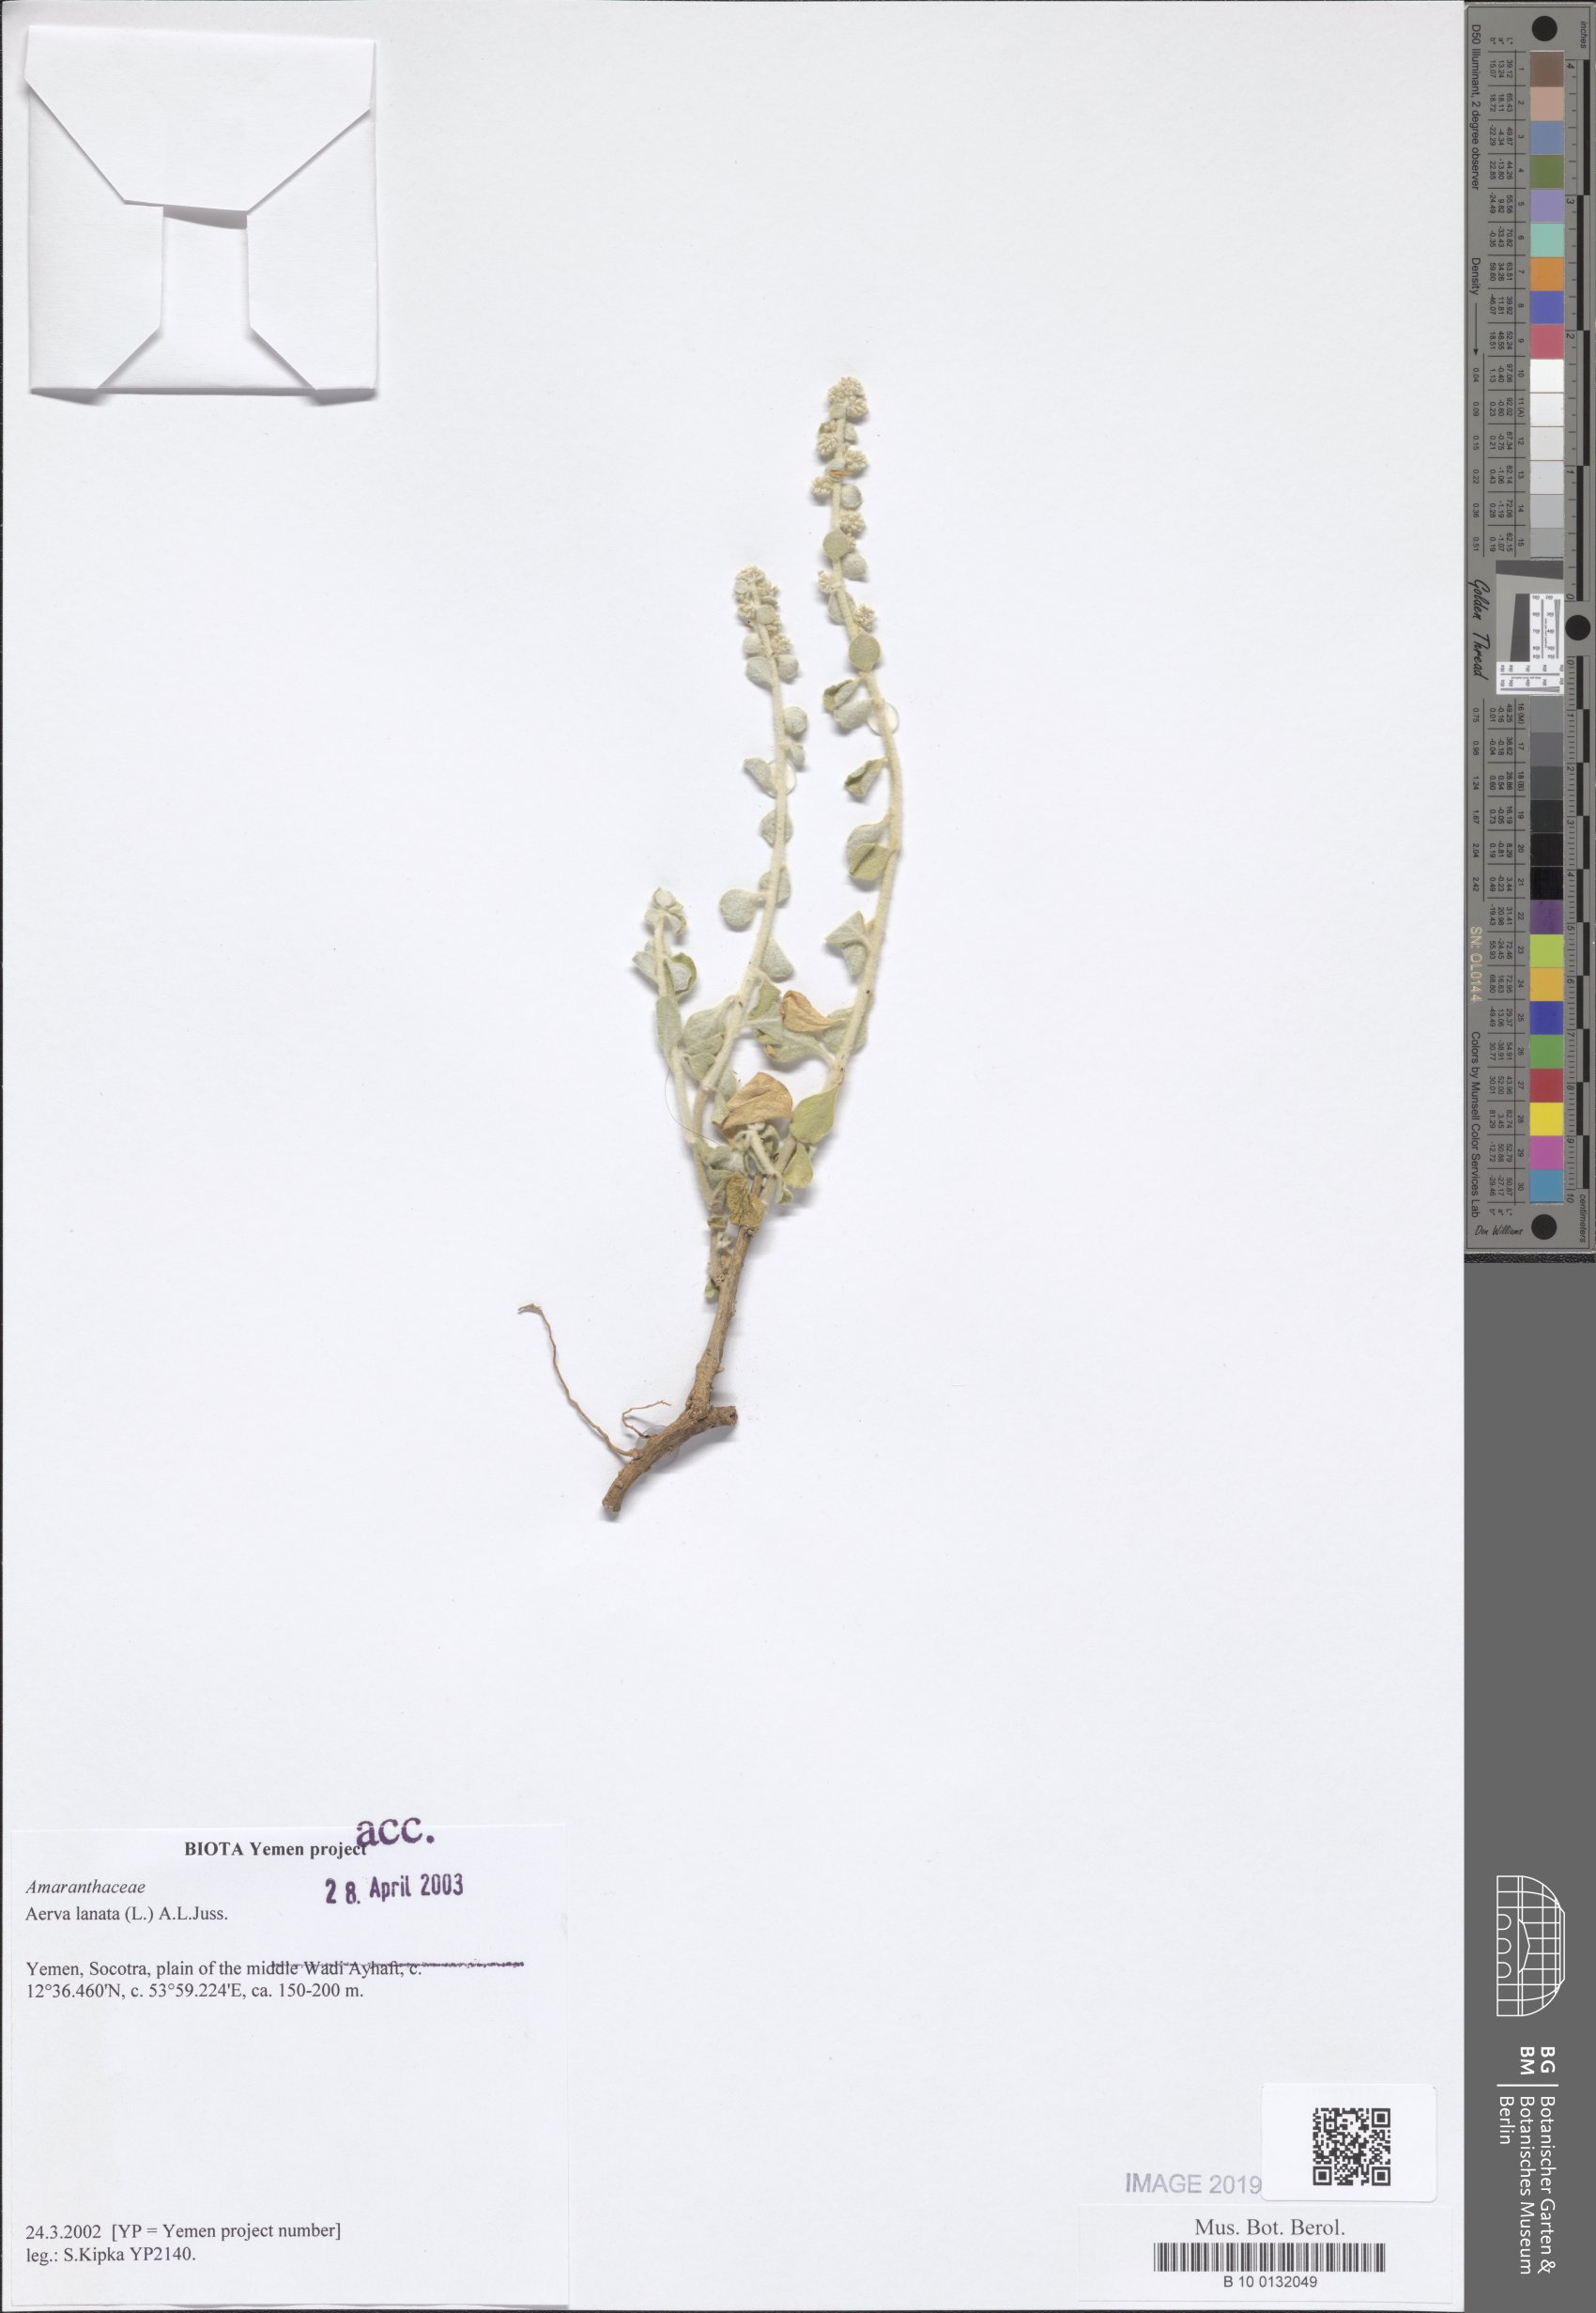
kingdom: Plantae
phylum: Tracheophyta
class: Magnoliopsida
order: Caryophyllales
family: Amaranthaceae
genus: Ouret
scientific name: Ouret lanata
